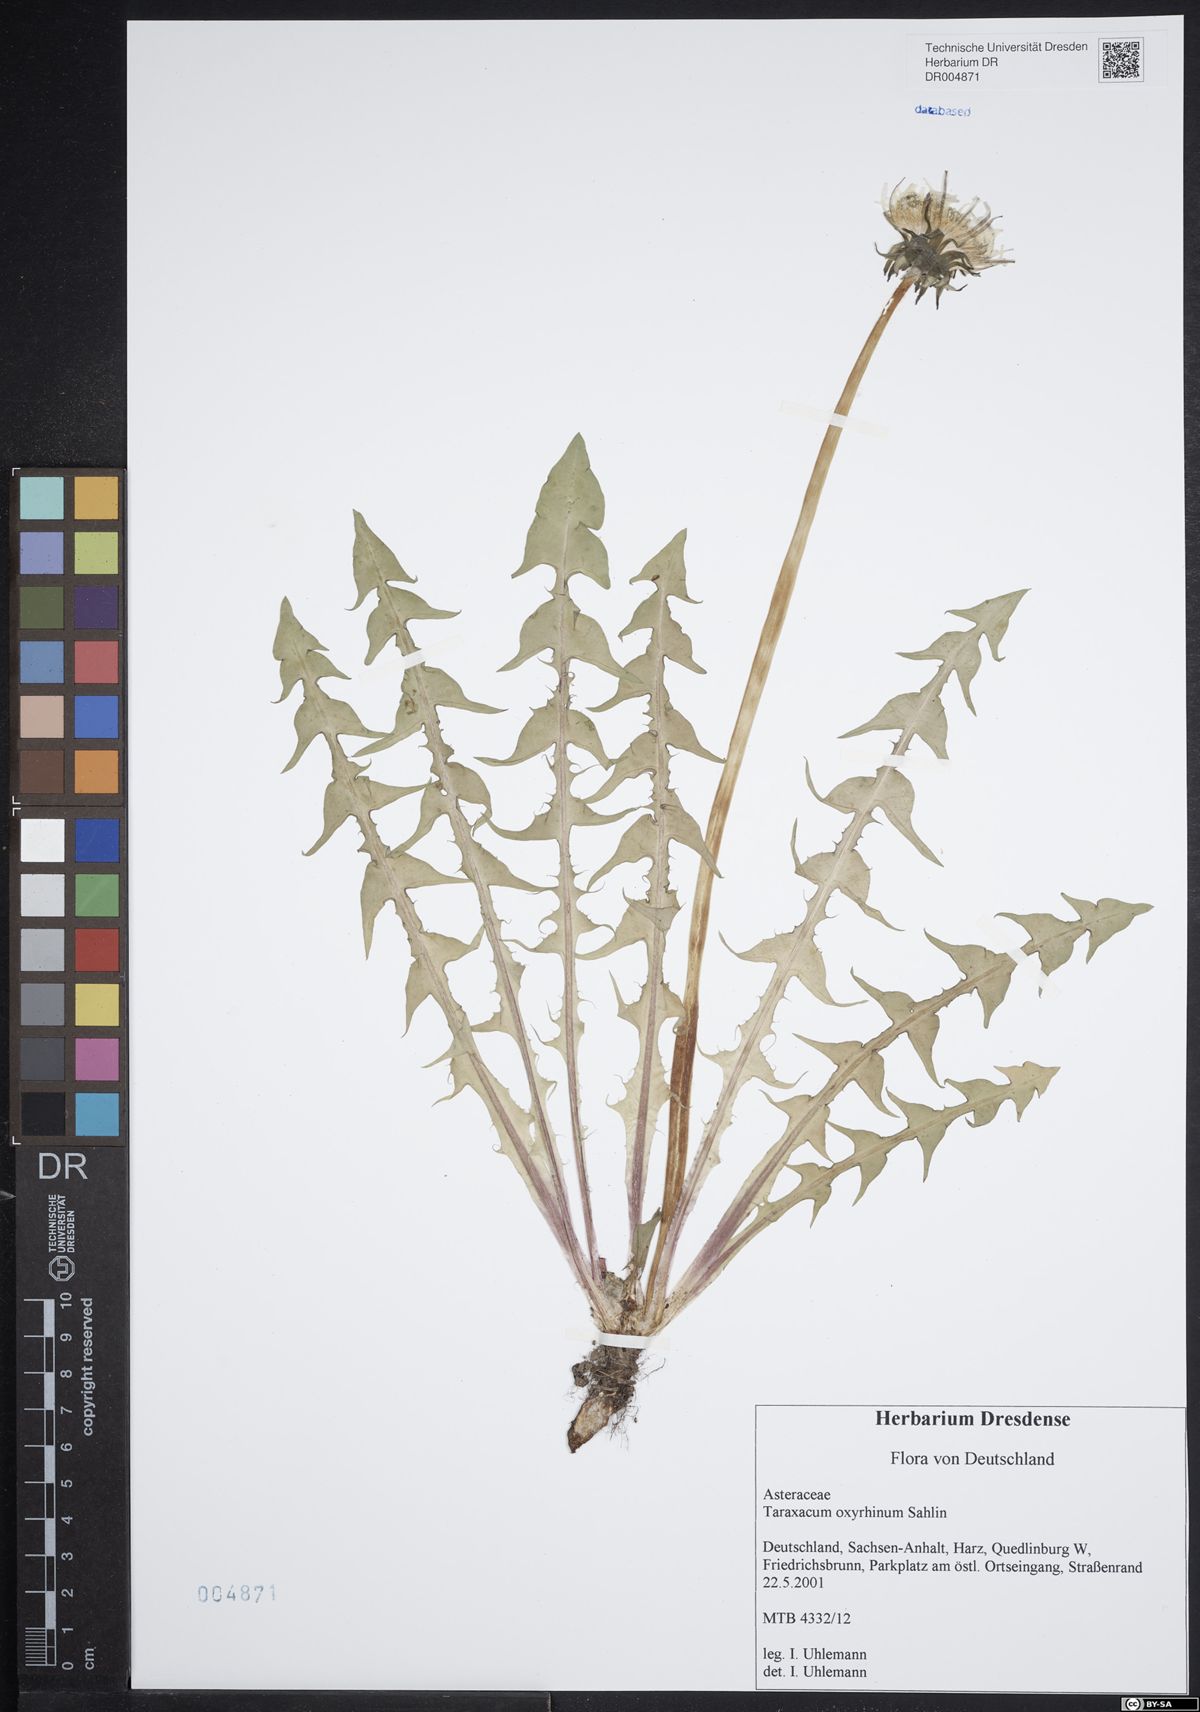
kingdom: Plantae
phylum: Tracheophyta
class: Magnoliopsida
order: Asterales
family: Asteraceae
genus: Taraxacum
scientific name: Taraxacum oxyrrhinum
